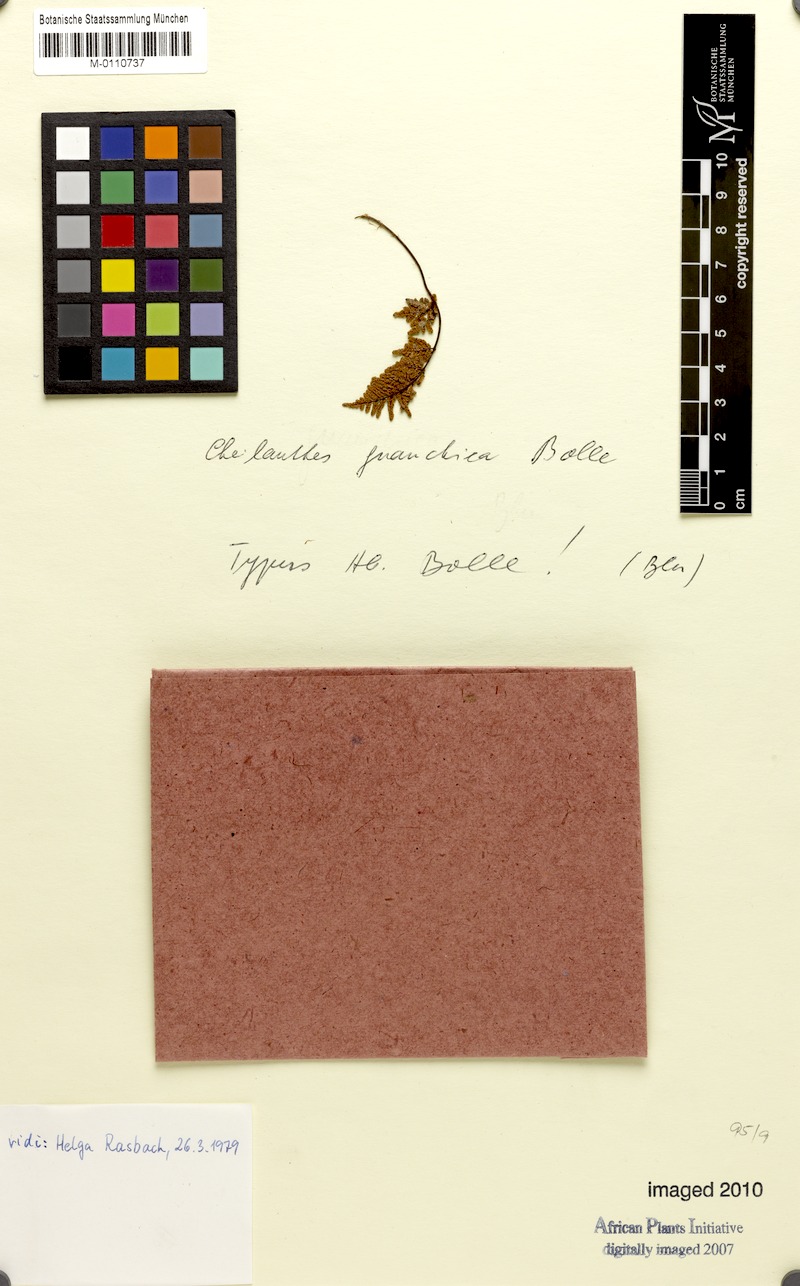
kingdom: Plantae
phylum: Tracheophyta
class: Polypodiopsida
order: Polypodiales
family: Pteridaceae
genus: Oeosporangium
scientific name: Oeosporangium guanchicum
